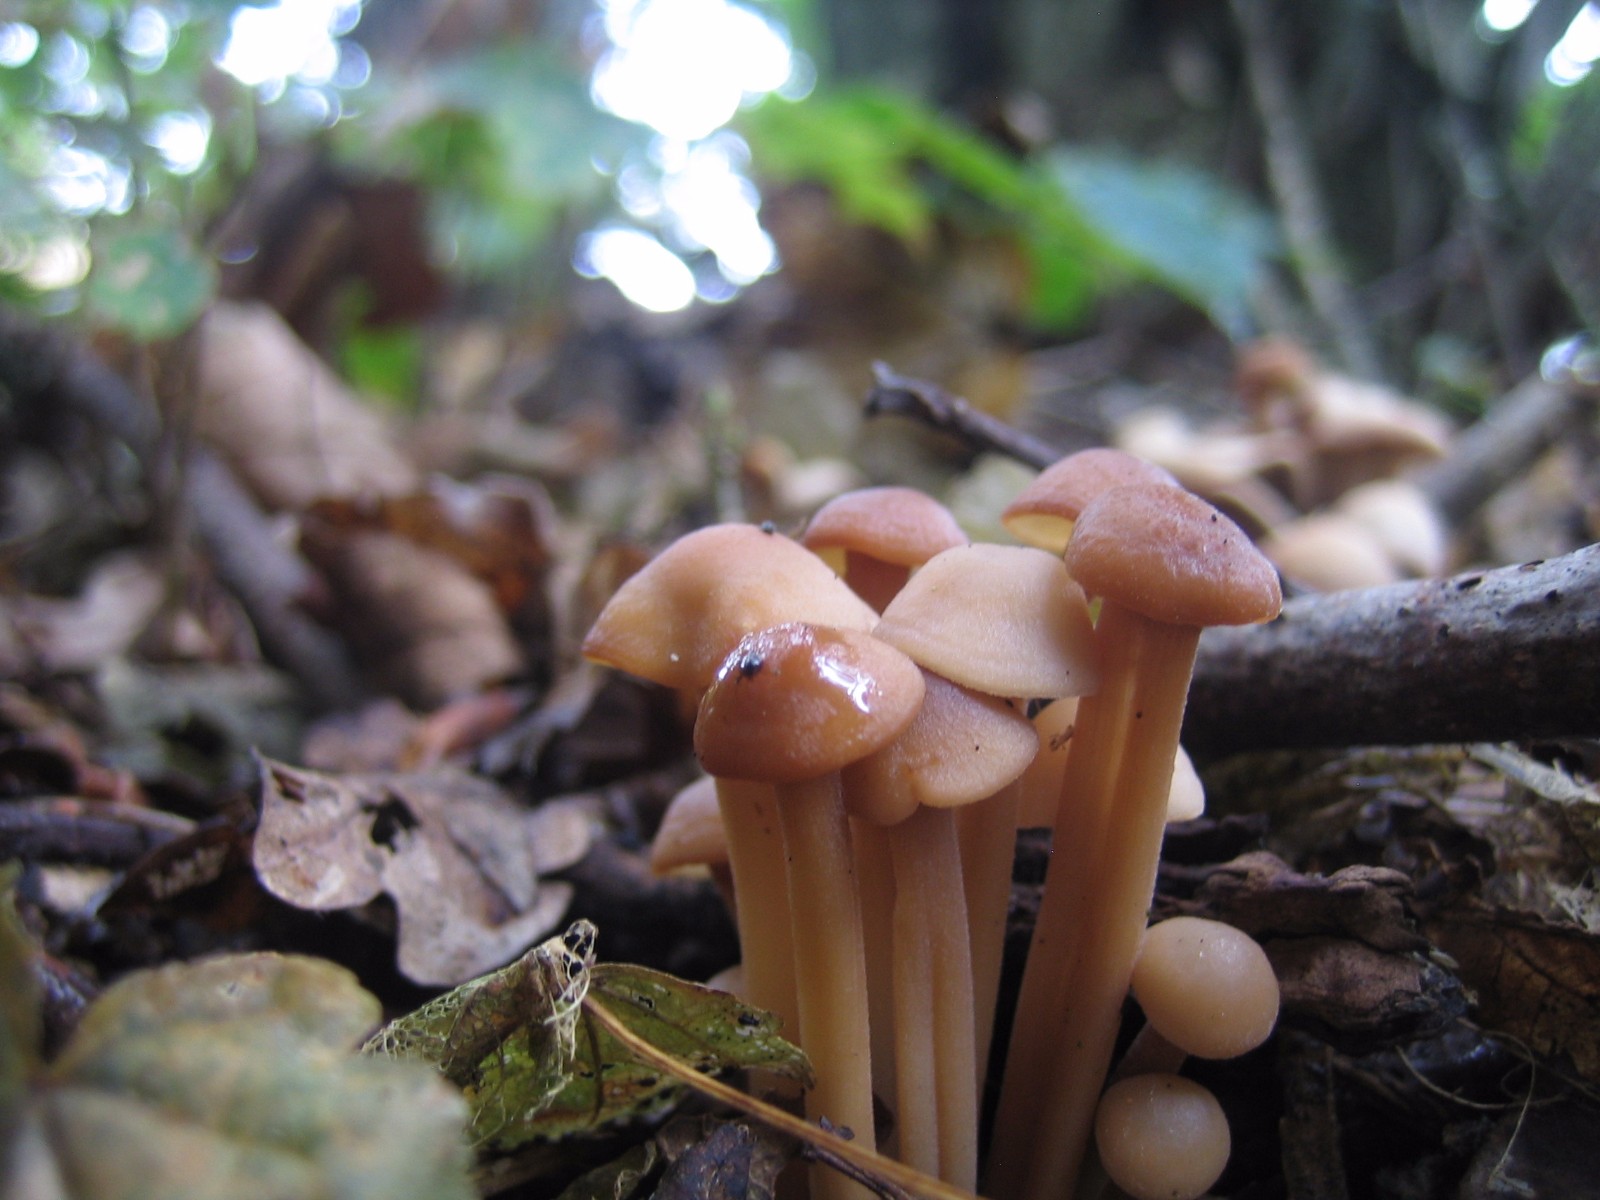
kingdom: Fungi
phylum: Basidiomycota
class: Agaricomycetes
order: Agaricales
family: Omphalotaceae
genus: Collybiopsis
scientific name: Collybiopsis confluens
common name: knippe-fladhat
